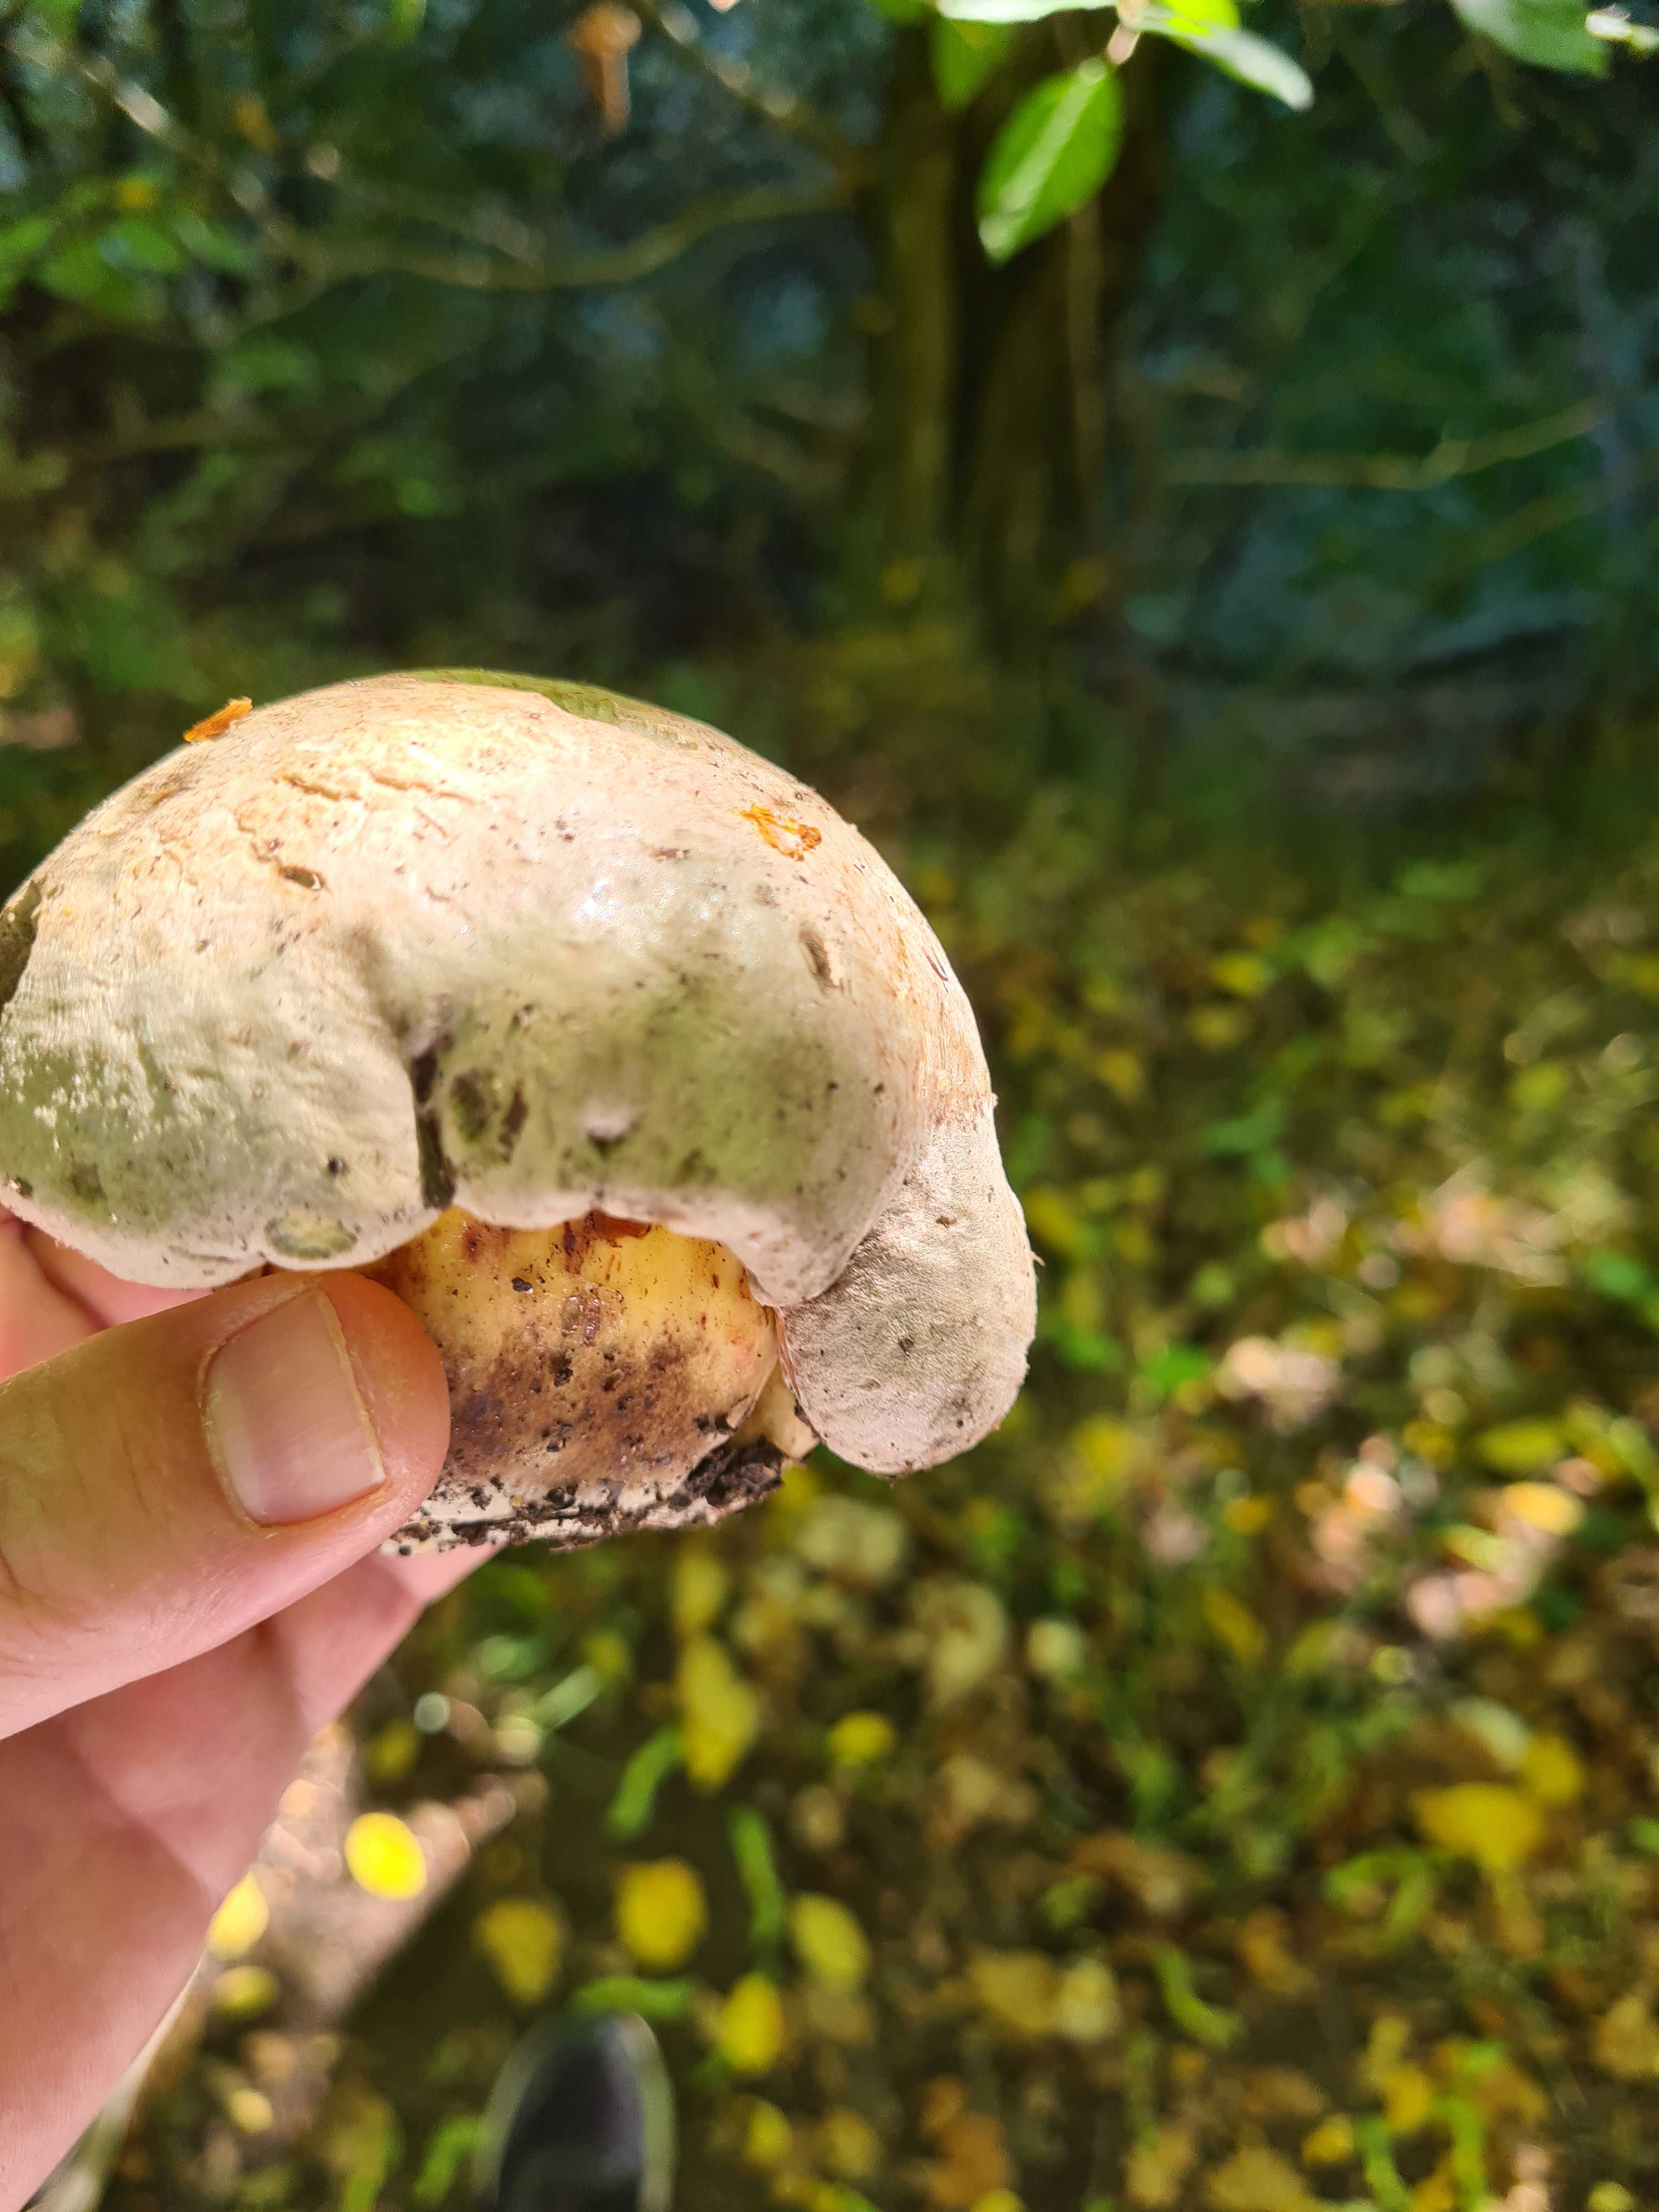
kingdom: Fungi
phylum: Basidiomycota
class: Agaricomycetes
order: Boletales
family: Boletaceae
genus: Caloboletus
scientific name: Caloboletus radicans
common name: rod-rørhat
